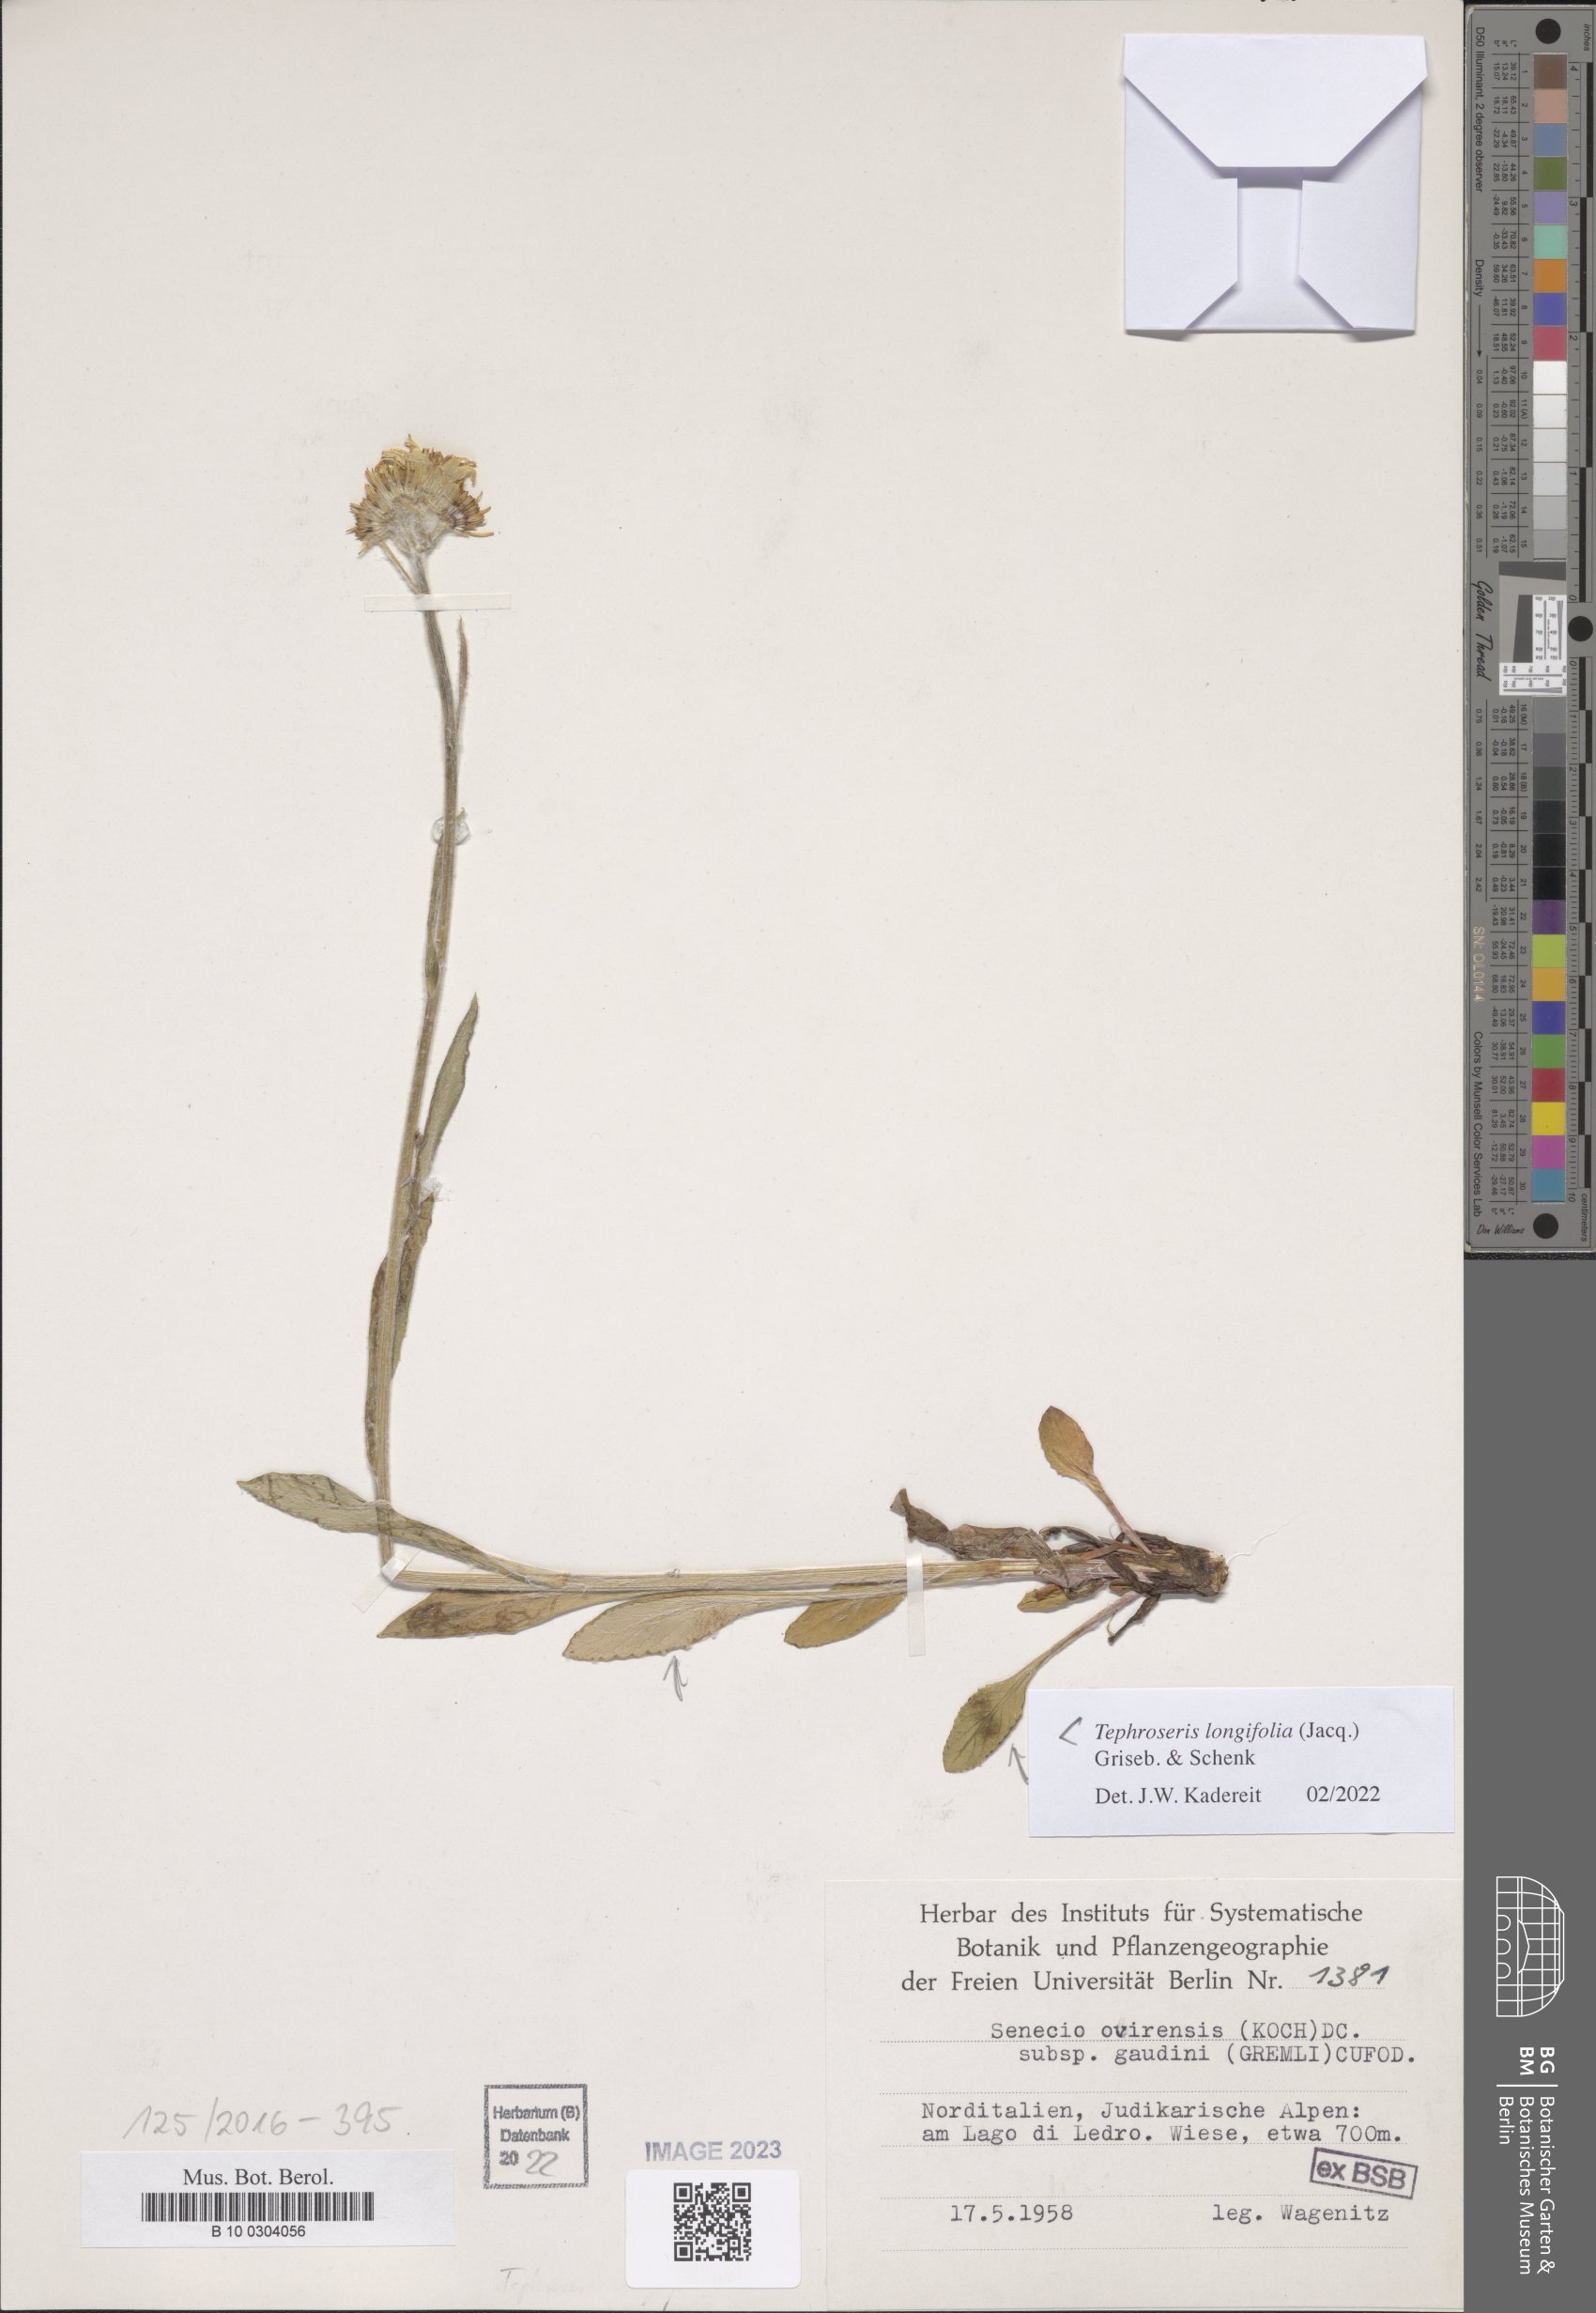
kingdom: Plantae
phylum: Tracheophyta
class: Magnoliopsida
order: Asterales
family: Asteraceae
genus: Tephroseris
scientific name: Tephroseris longifolia
